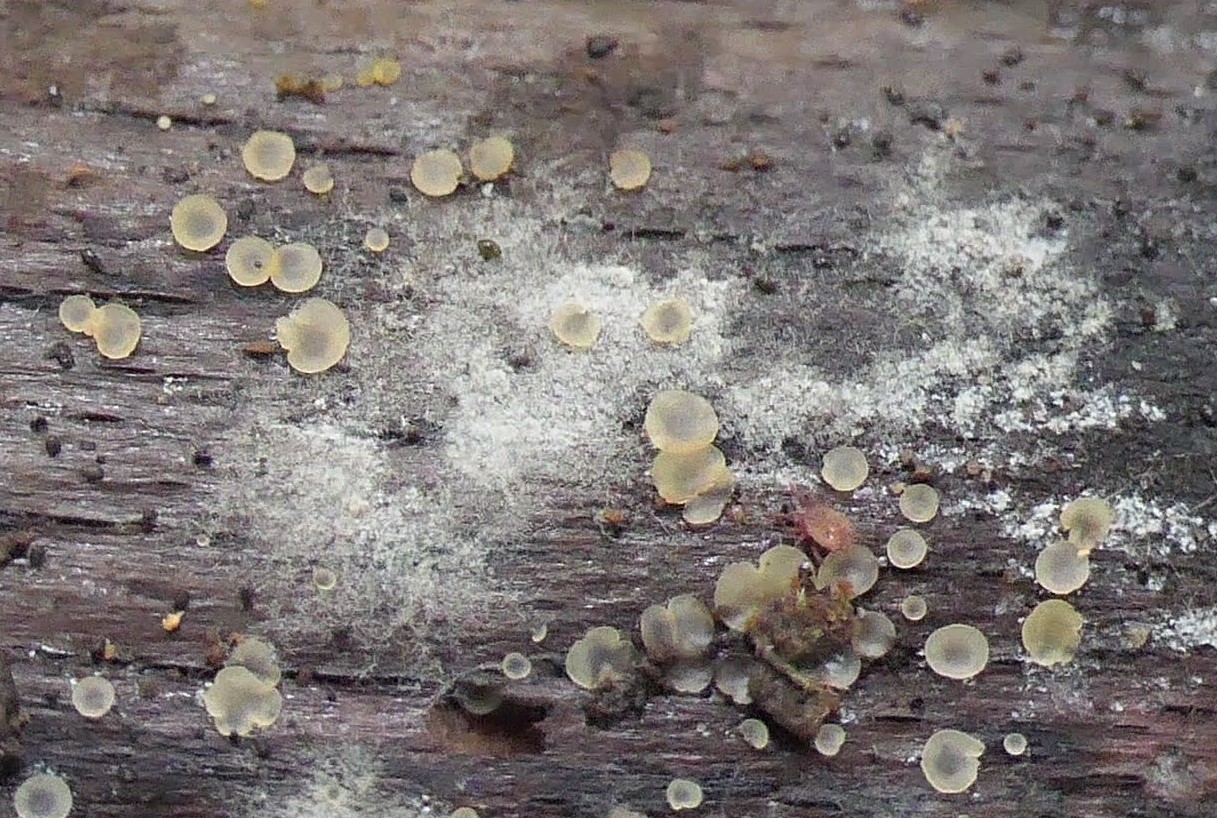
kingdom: Fungi
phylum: Ascomycota
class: Orbiliomycetes
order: Orbiliales
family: Orbiliaceae
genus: Orbilia
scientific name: Orbilia xanthostigma
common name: krumsporet voksskive
